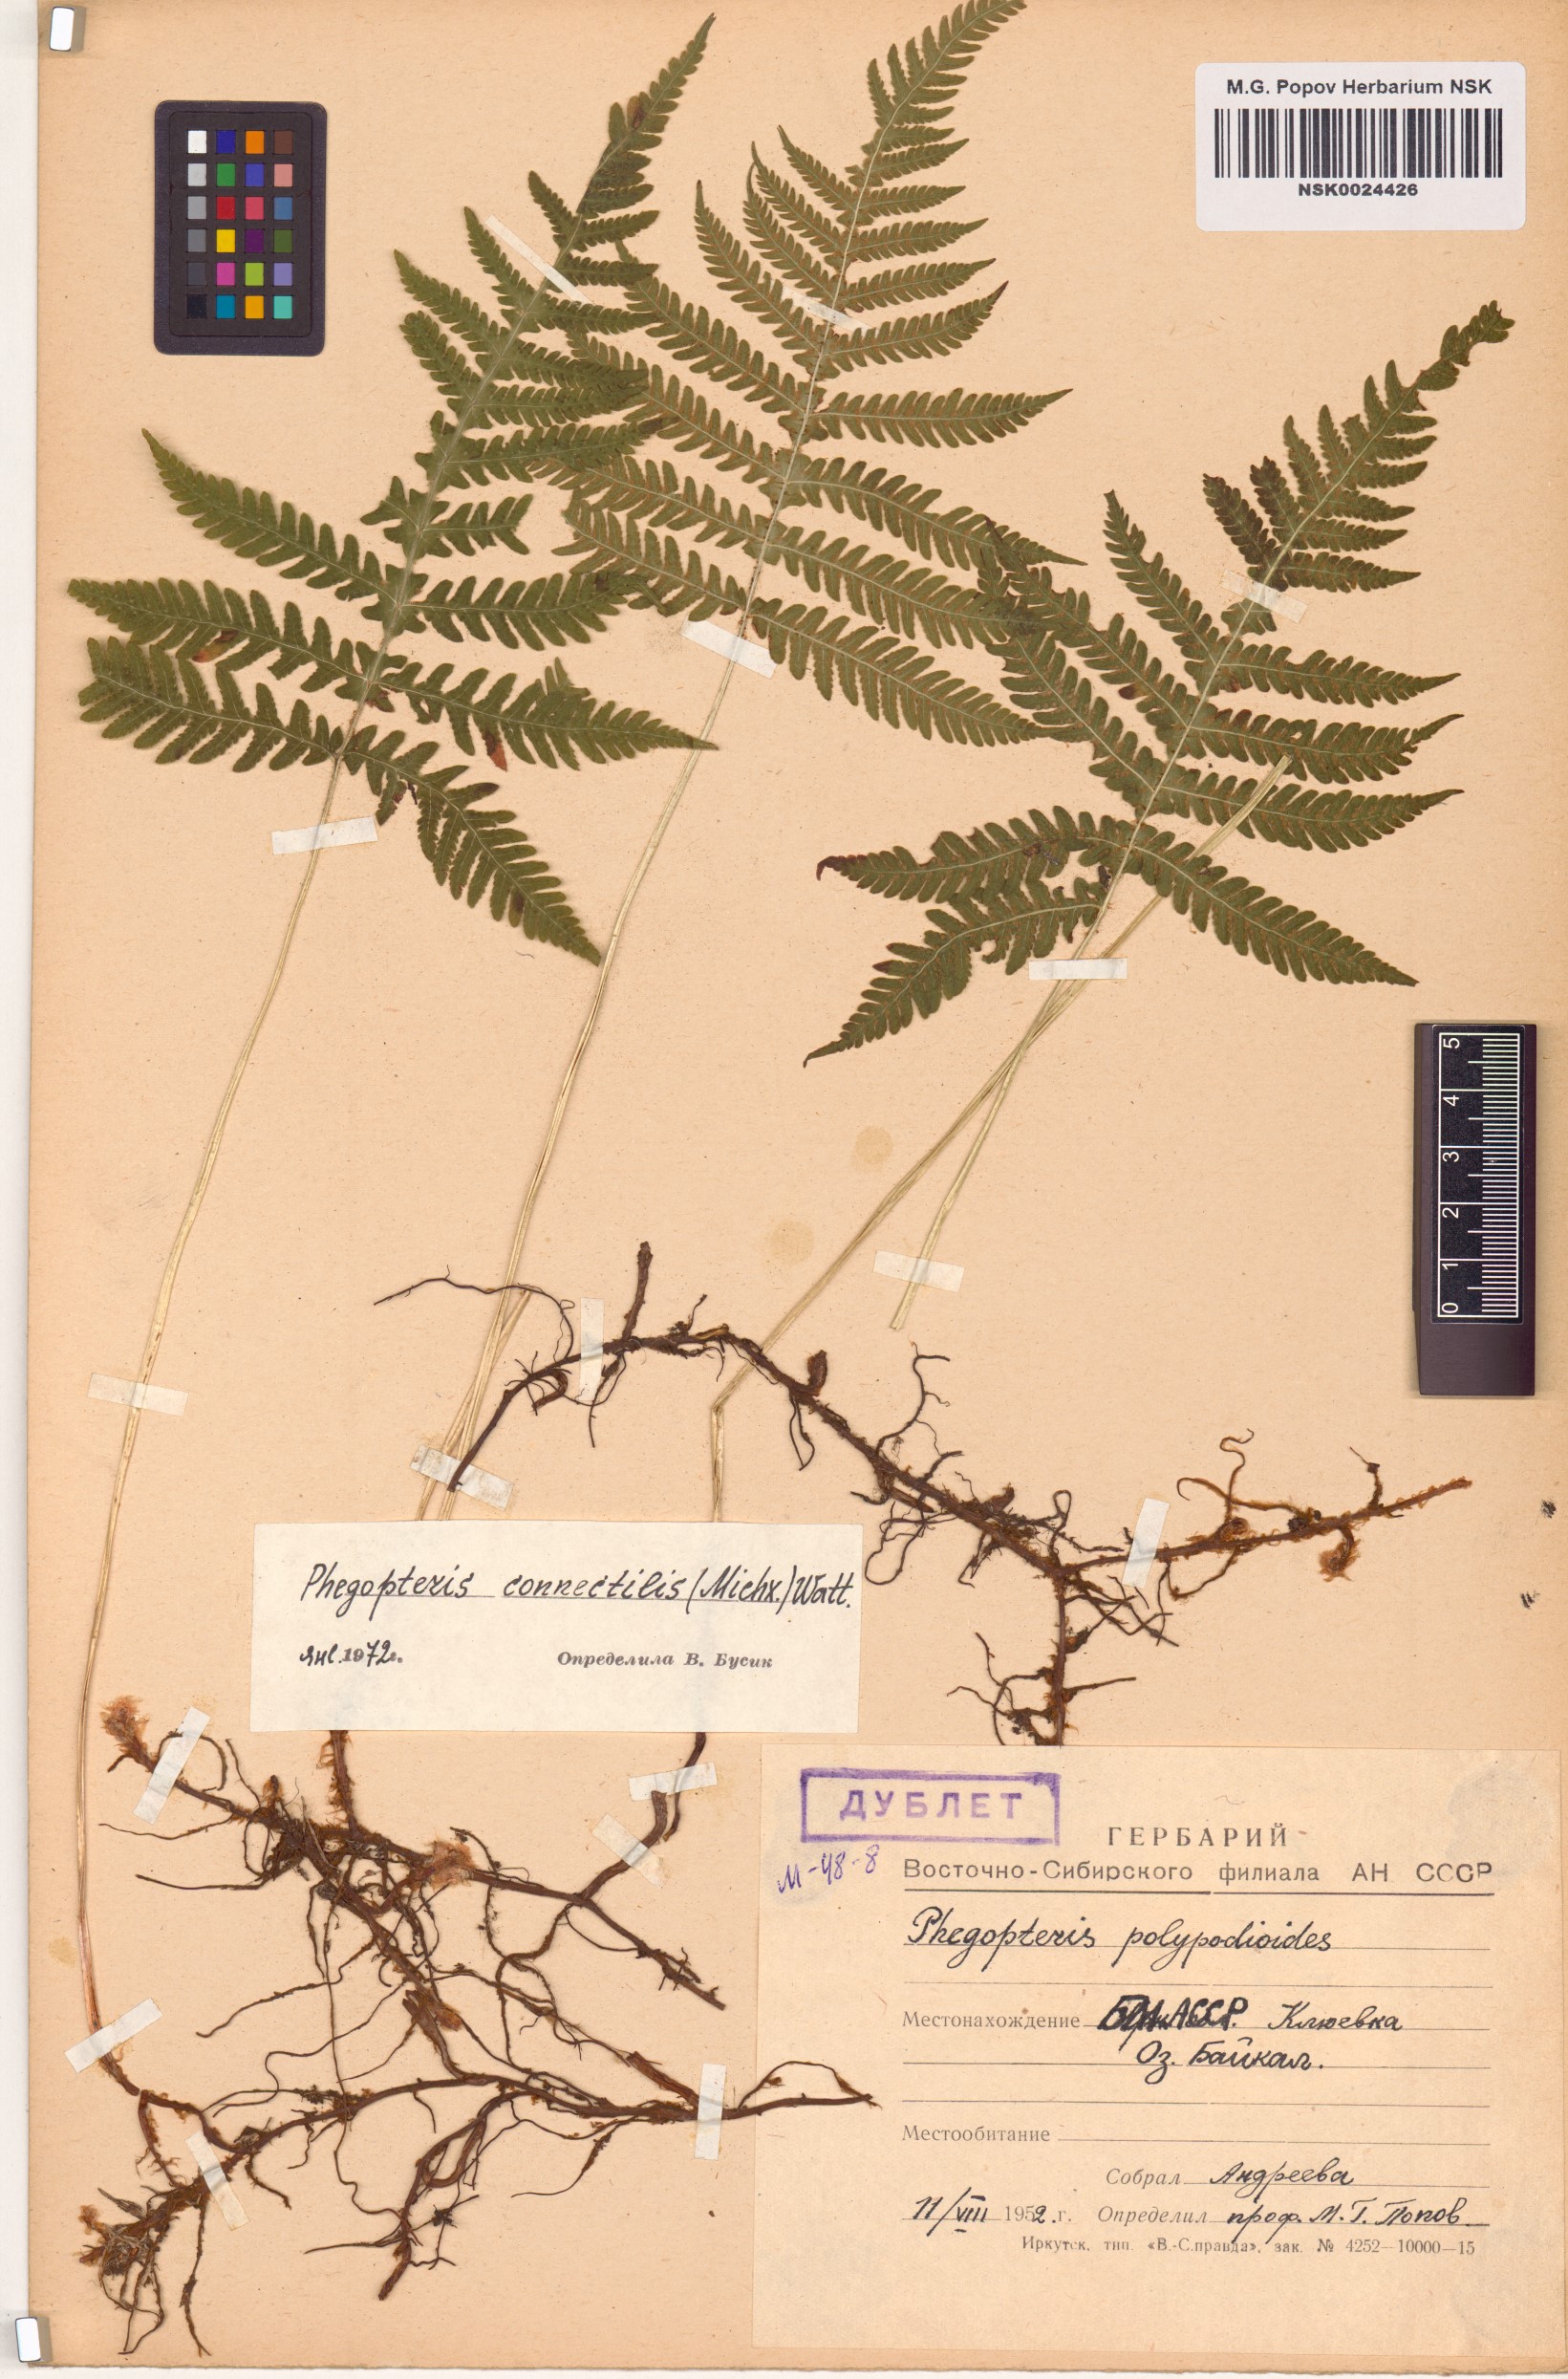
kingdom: Plantae
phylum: Tracheophyta
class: Polypodiopsida
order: Polypodiales
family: Thelypteridaceae
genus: Phegopteris
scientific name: Phegopteris connectilis
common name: Beech fern
